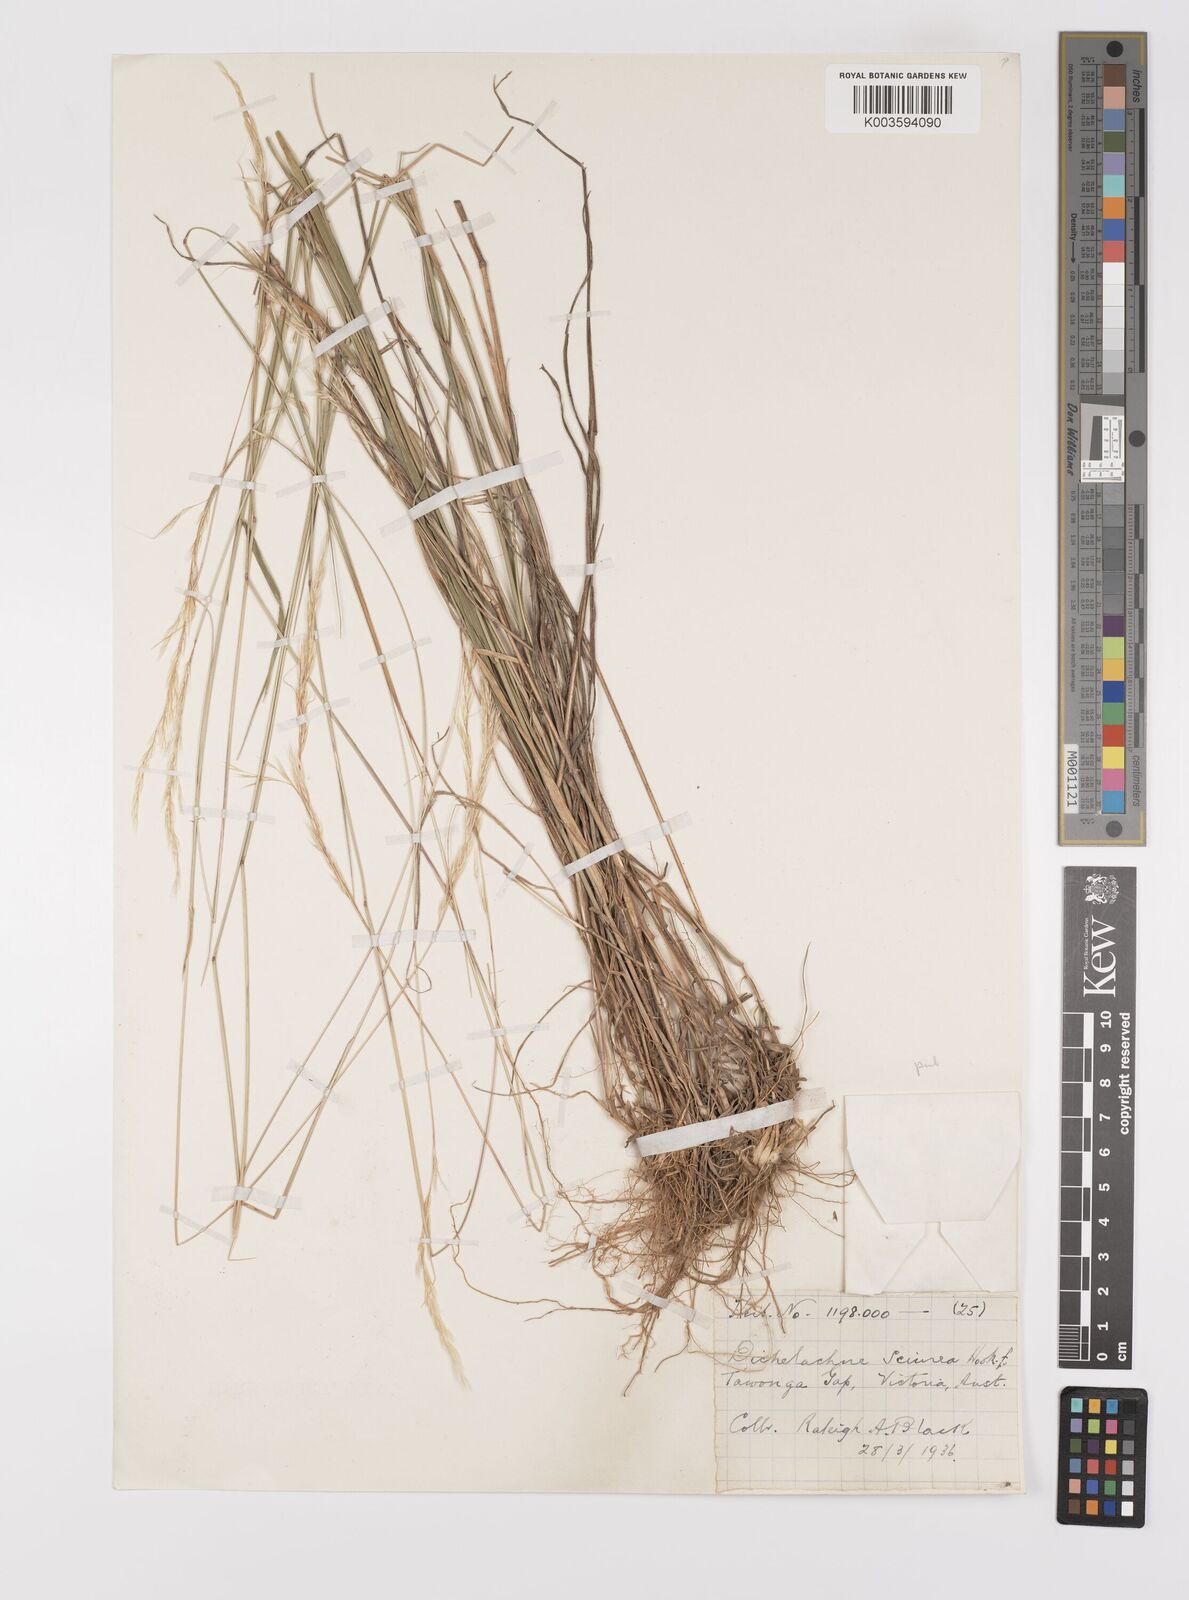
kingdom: Plantae
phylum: Tracheophyta
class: Liliopsida
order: Poales
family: Poaceae
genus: Dichelachne
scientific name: Dichelachne rara
